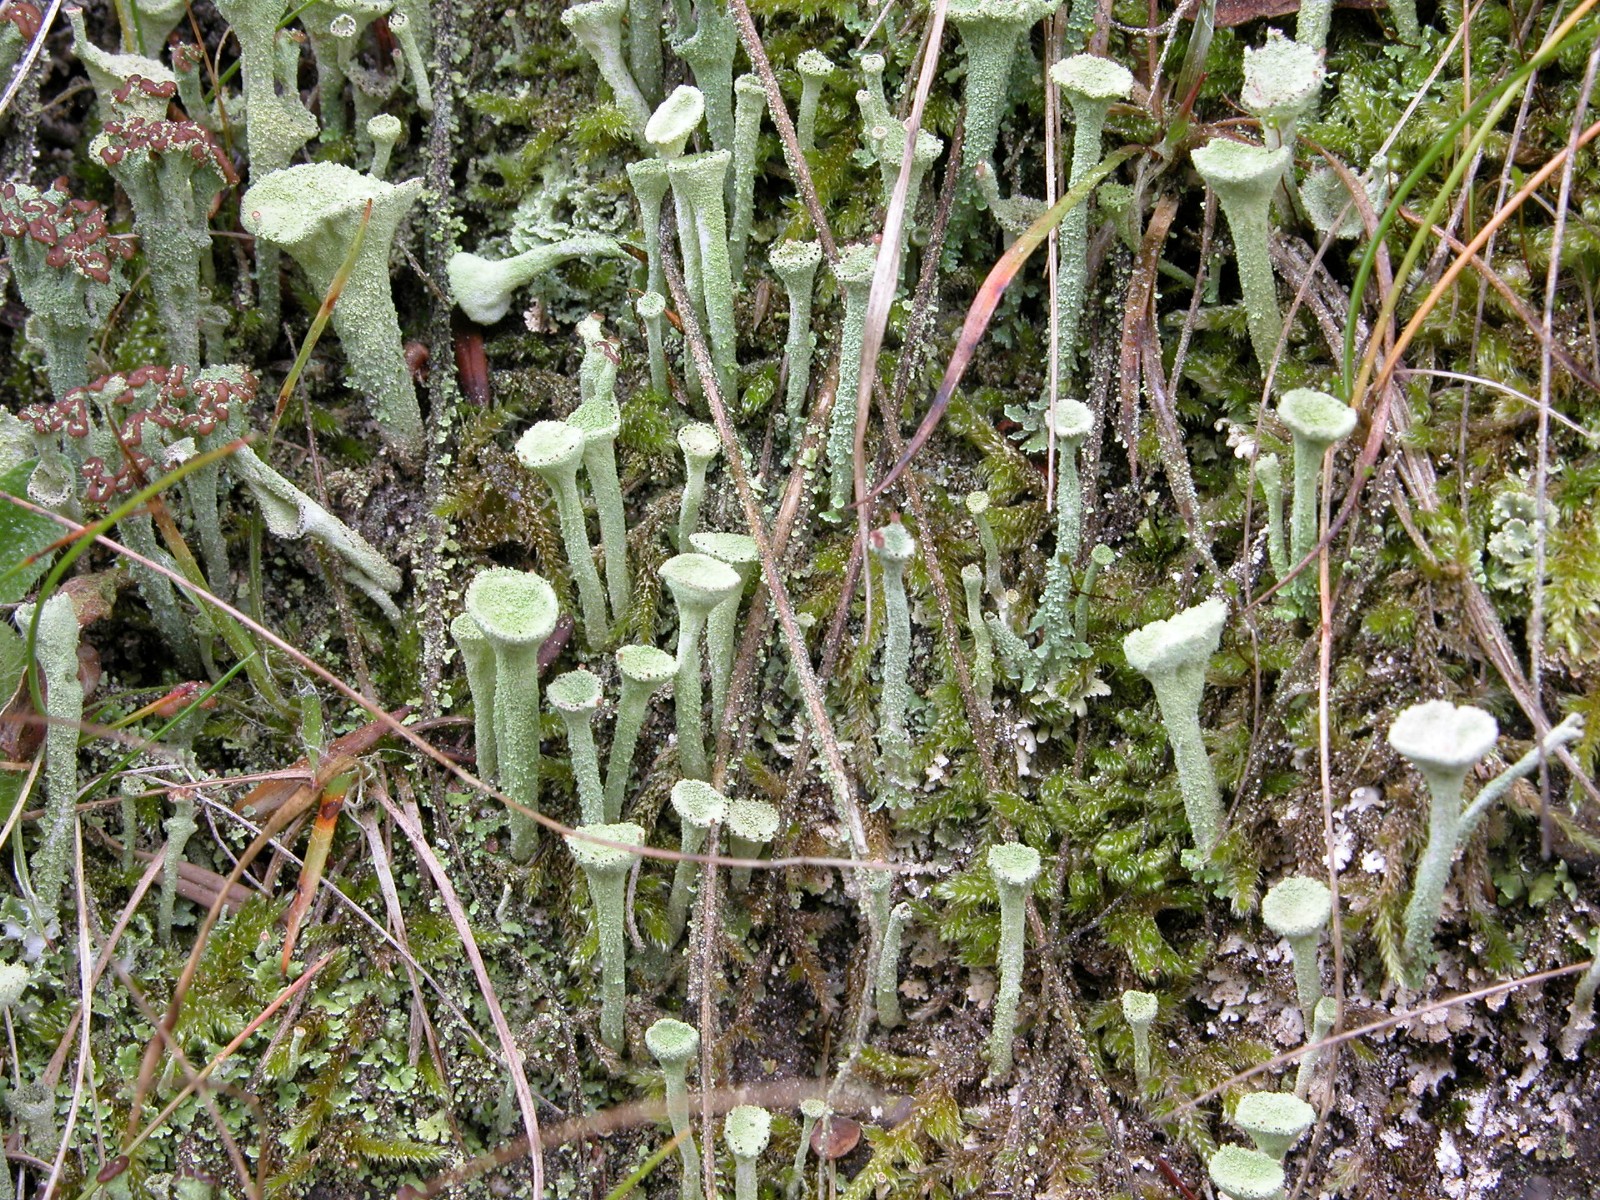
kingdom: Fungi
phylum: Ascomycota
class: Lecanoromycetes
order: Lecanorales
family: Cladoniaceae
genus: Cladonia
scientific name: Cladonia fimbriata
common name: bleggrøn bægerlav
